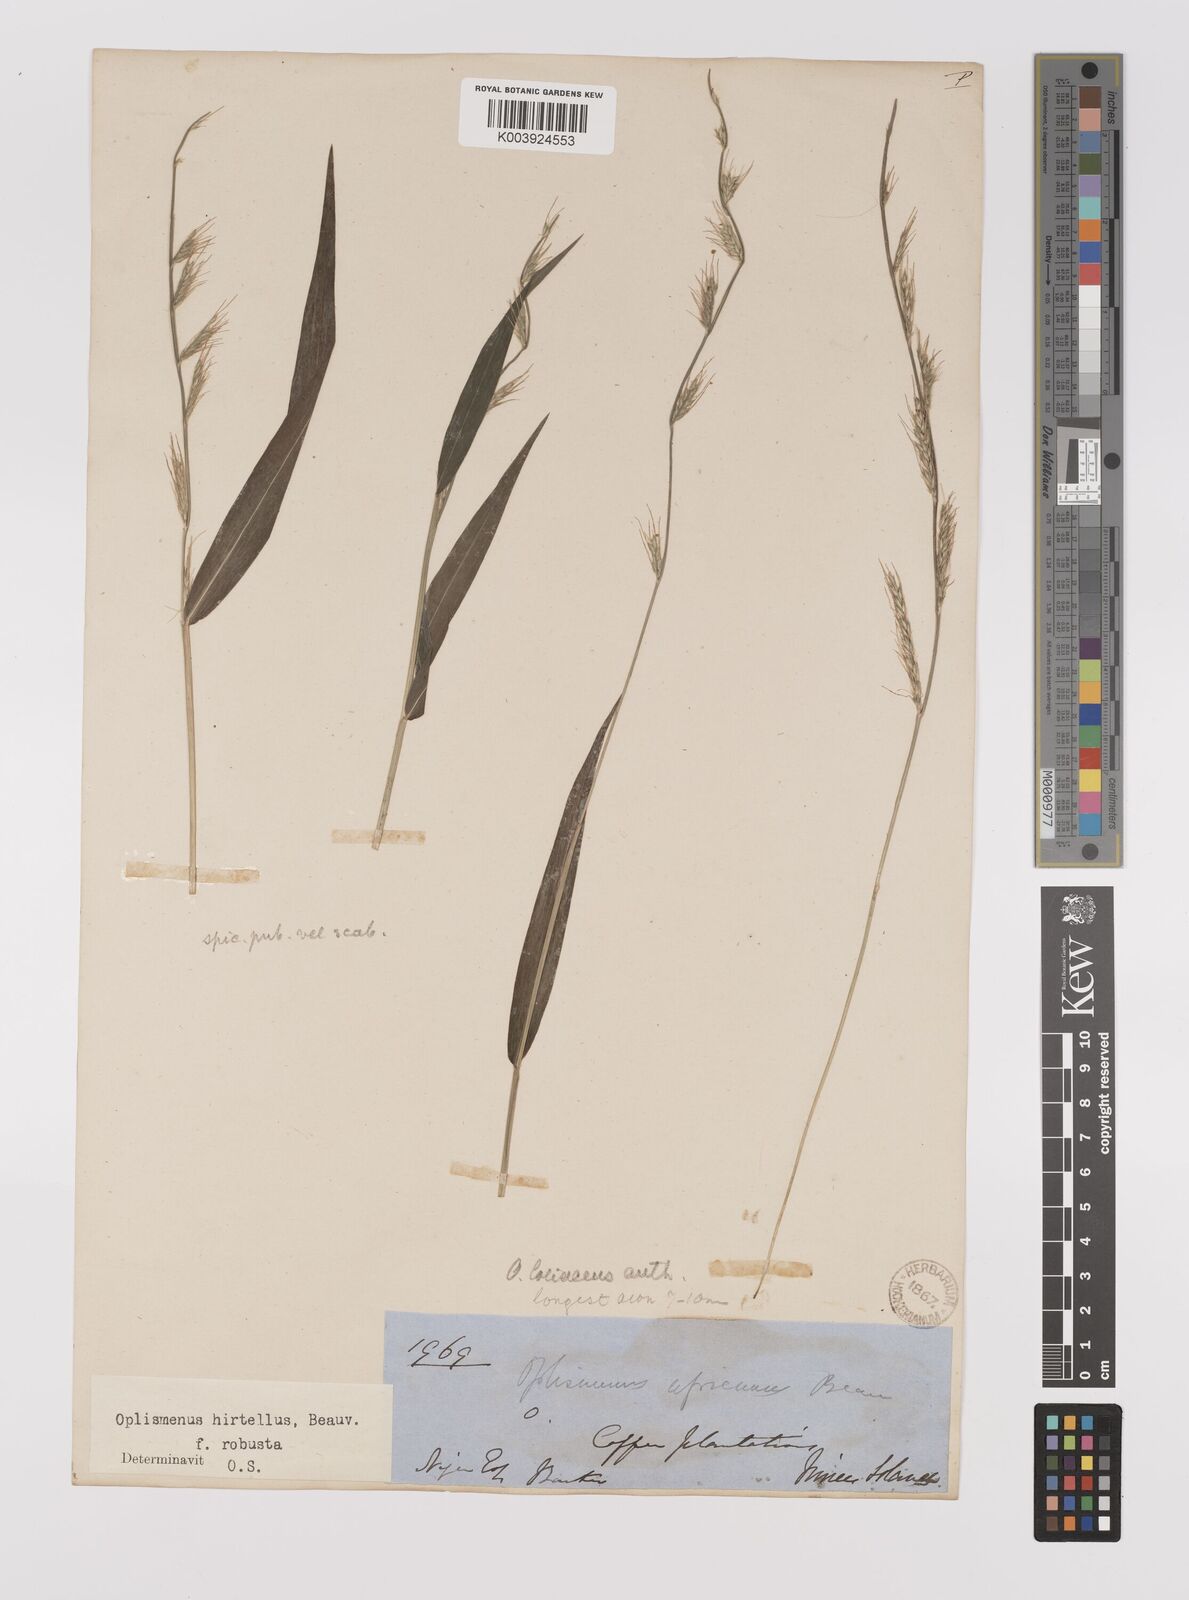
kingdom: Plantae
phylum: Tracheophyta
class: Liliopsida
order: Poales
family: Poaceae
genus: Oplismenus
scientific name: Oplismenus hirtellus
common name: Basketgrass
